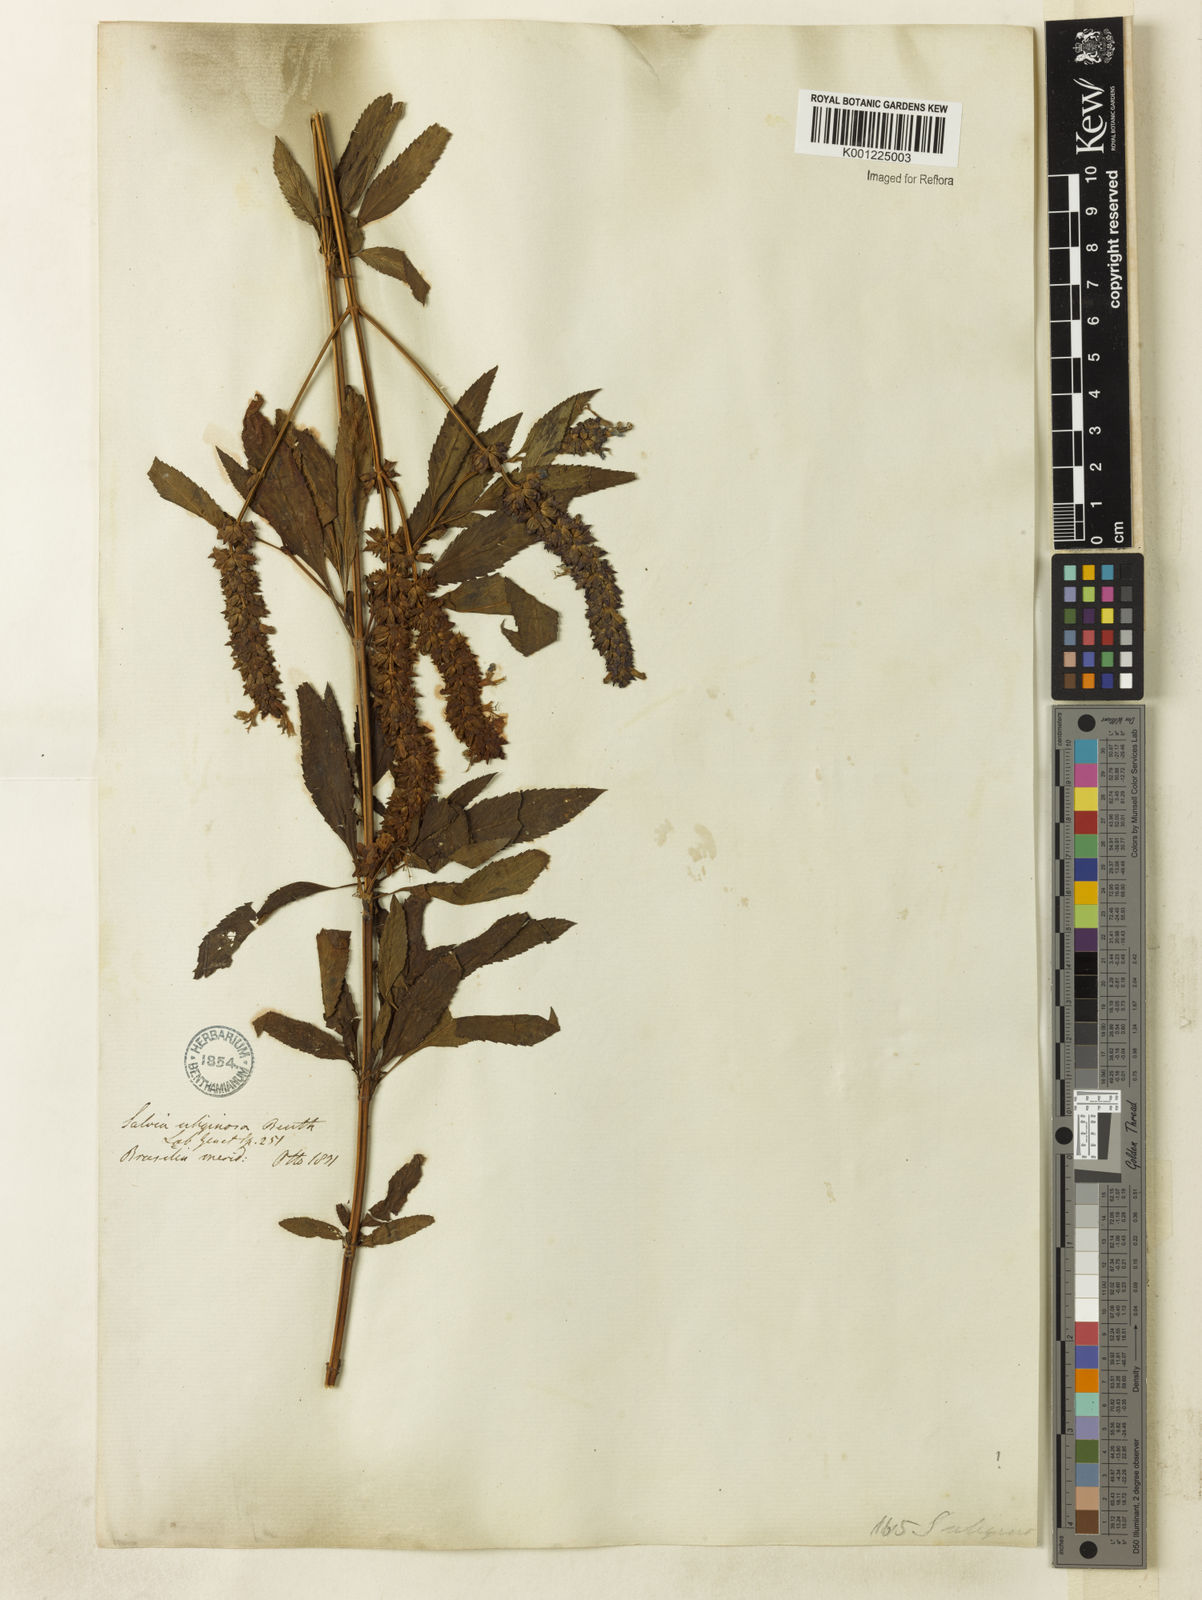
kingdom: Plantae
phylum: Tracheophyta
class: Magnoliopsida
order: Lamiales
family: Lamiaceae
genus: Salvia
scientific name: Salvia uliginosa
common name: Bog sage
